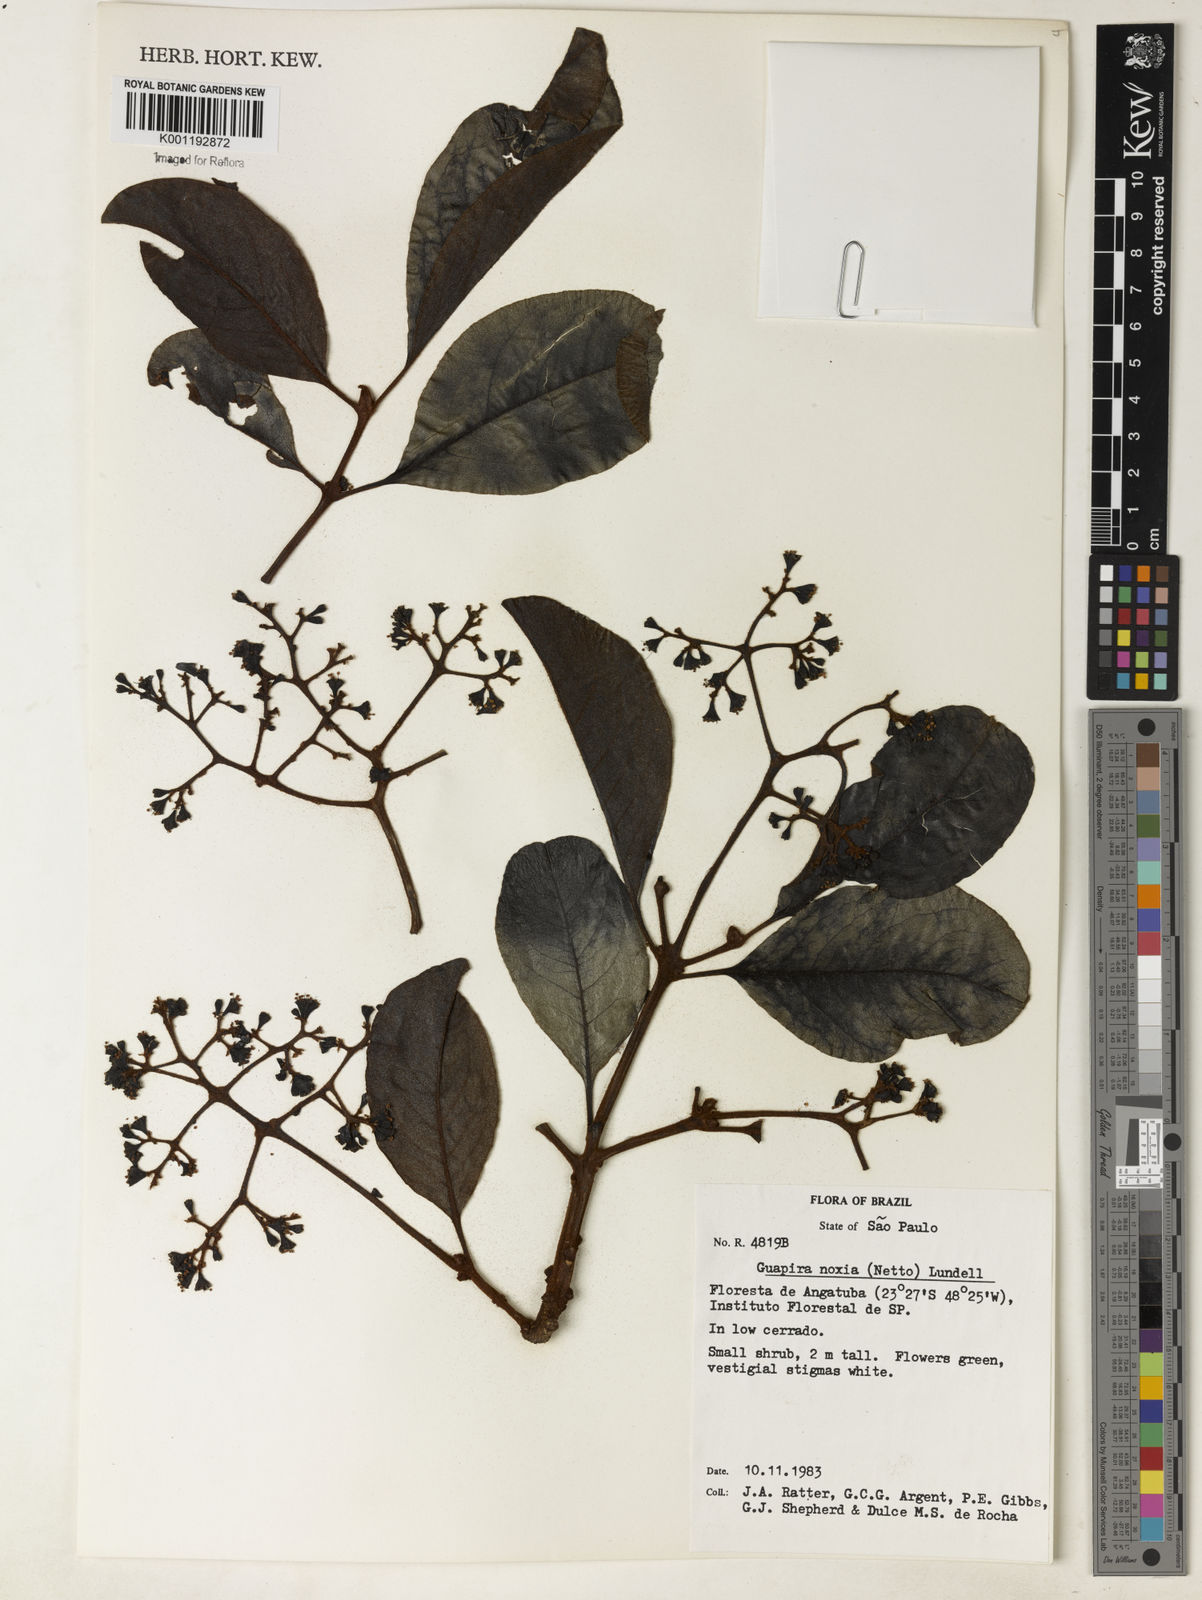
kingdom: Plantae
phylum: Tracheophyta
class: Magnoliopsida
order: Caryophyllales
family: Nyctaginaceae
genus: Guapira
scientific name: Guapira noxia
